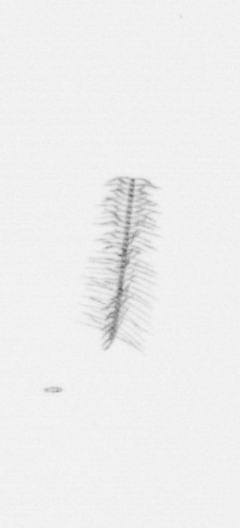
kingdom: Chromista
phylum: Ochrophyta
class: Bacillariophyceae
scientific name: Bacillariophyceae
